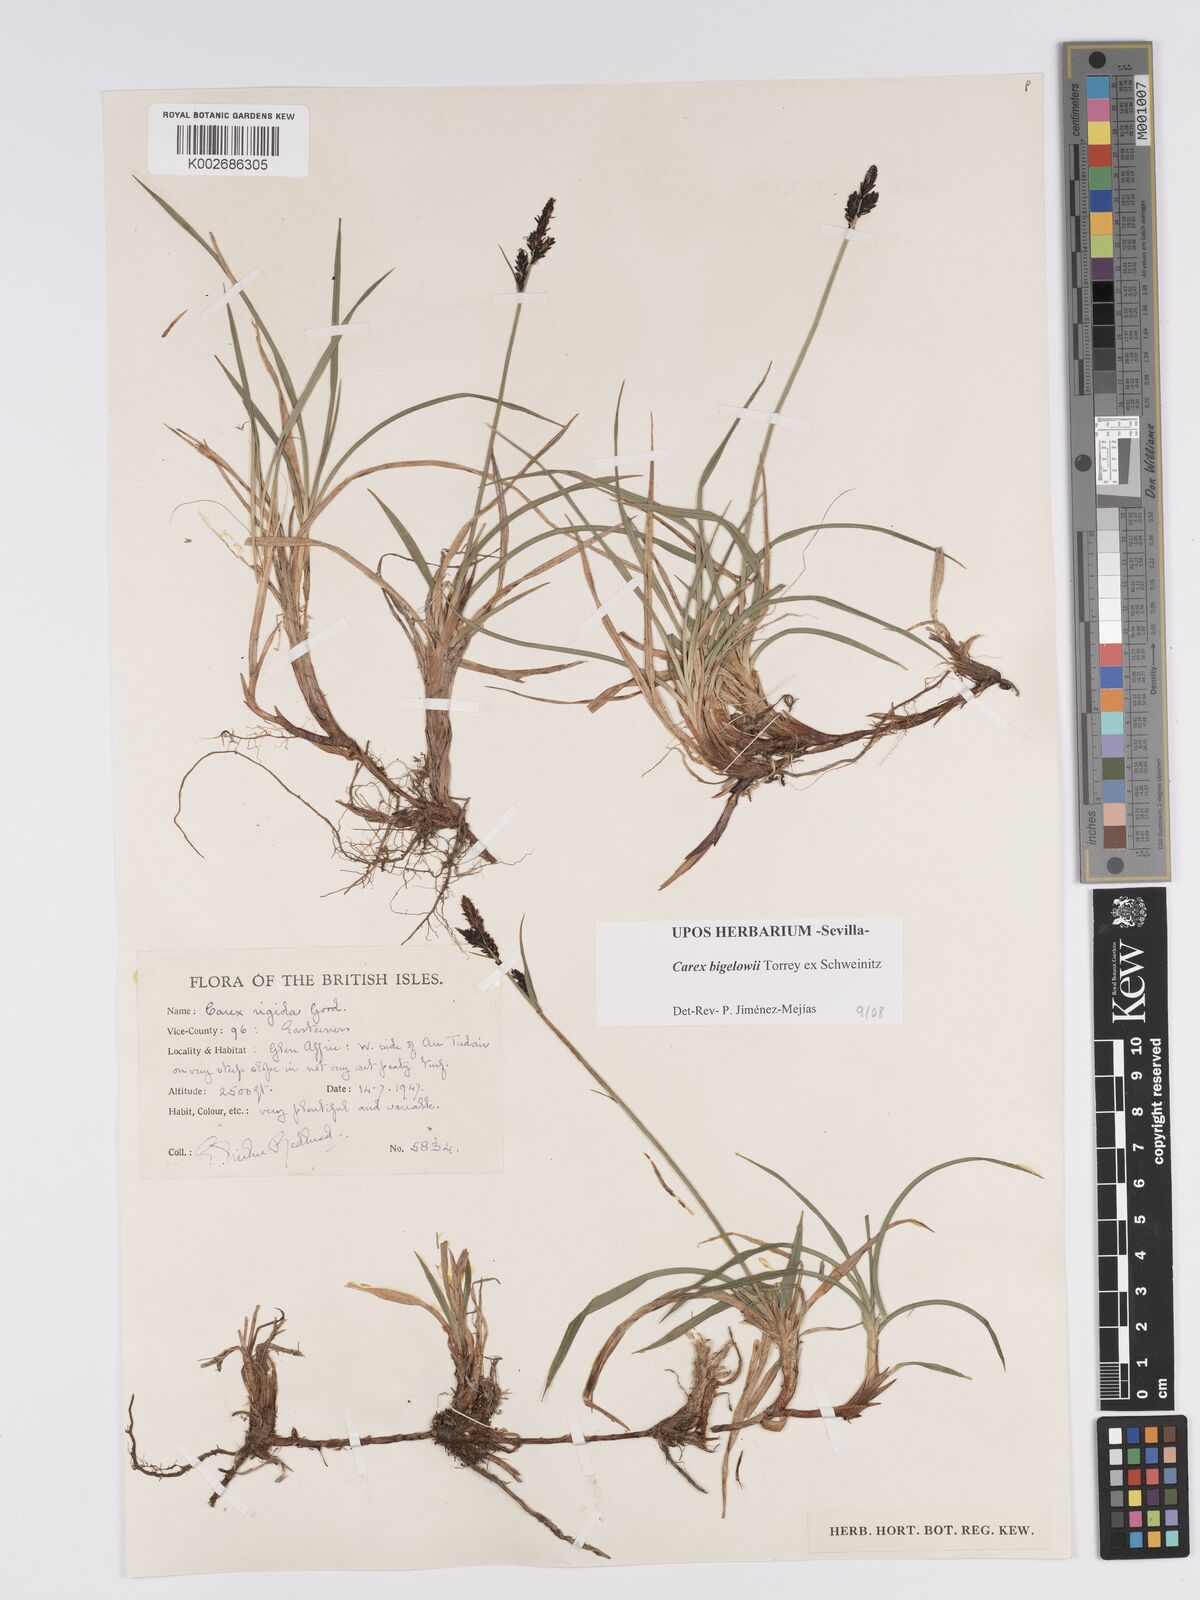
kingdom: Plantae
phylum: Tracheophyta
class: Liliopsida
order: Poales
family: Cyperaceae
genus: Carex
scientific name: Carex bigelowii
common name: Stiff sedge
